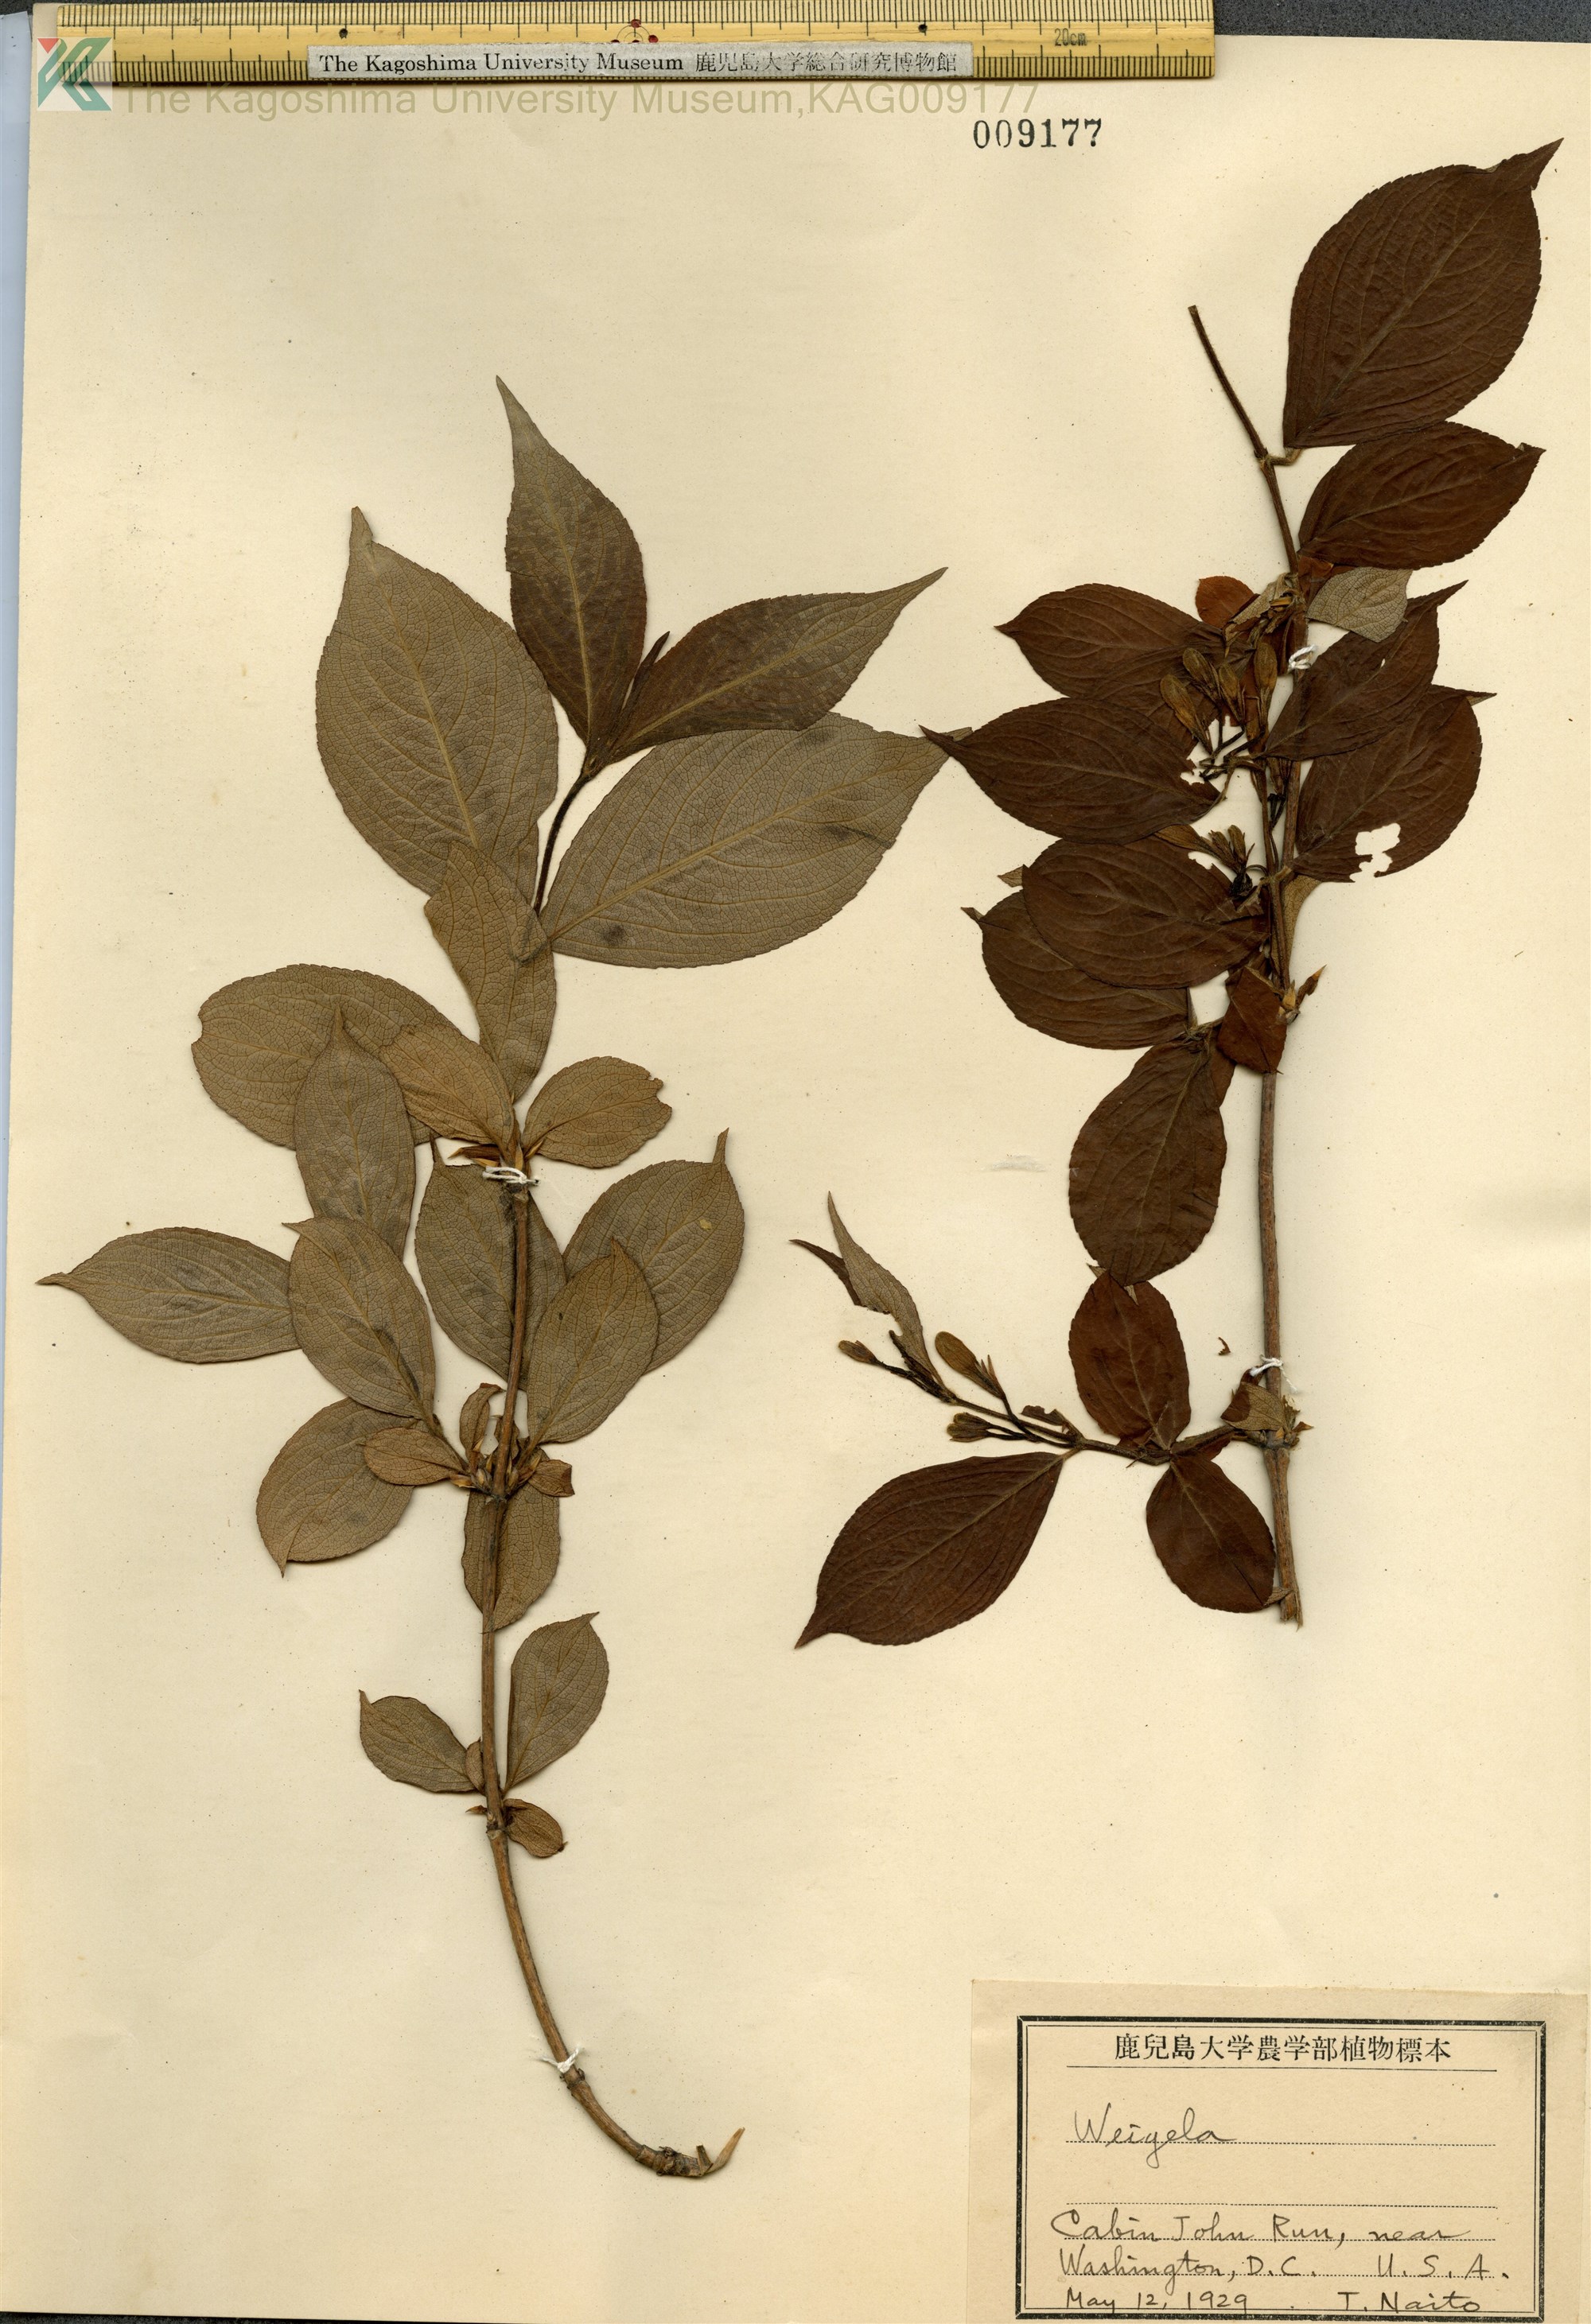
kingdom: Plantae
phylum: Tracheophyta
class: Magnoliopsida
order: Dipsacales
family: Caprifoliaceae
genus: Weigela
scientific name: Weigela
